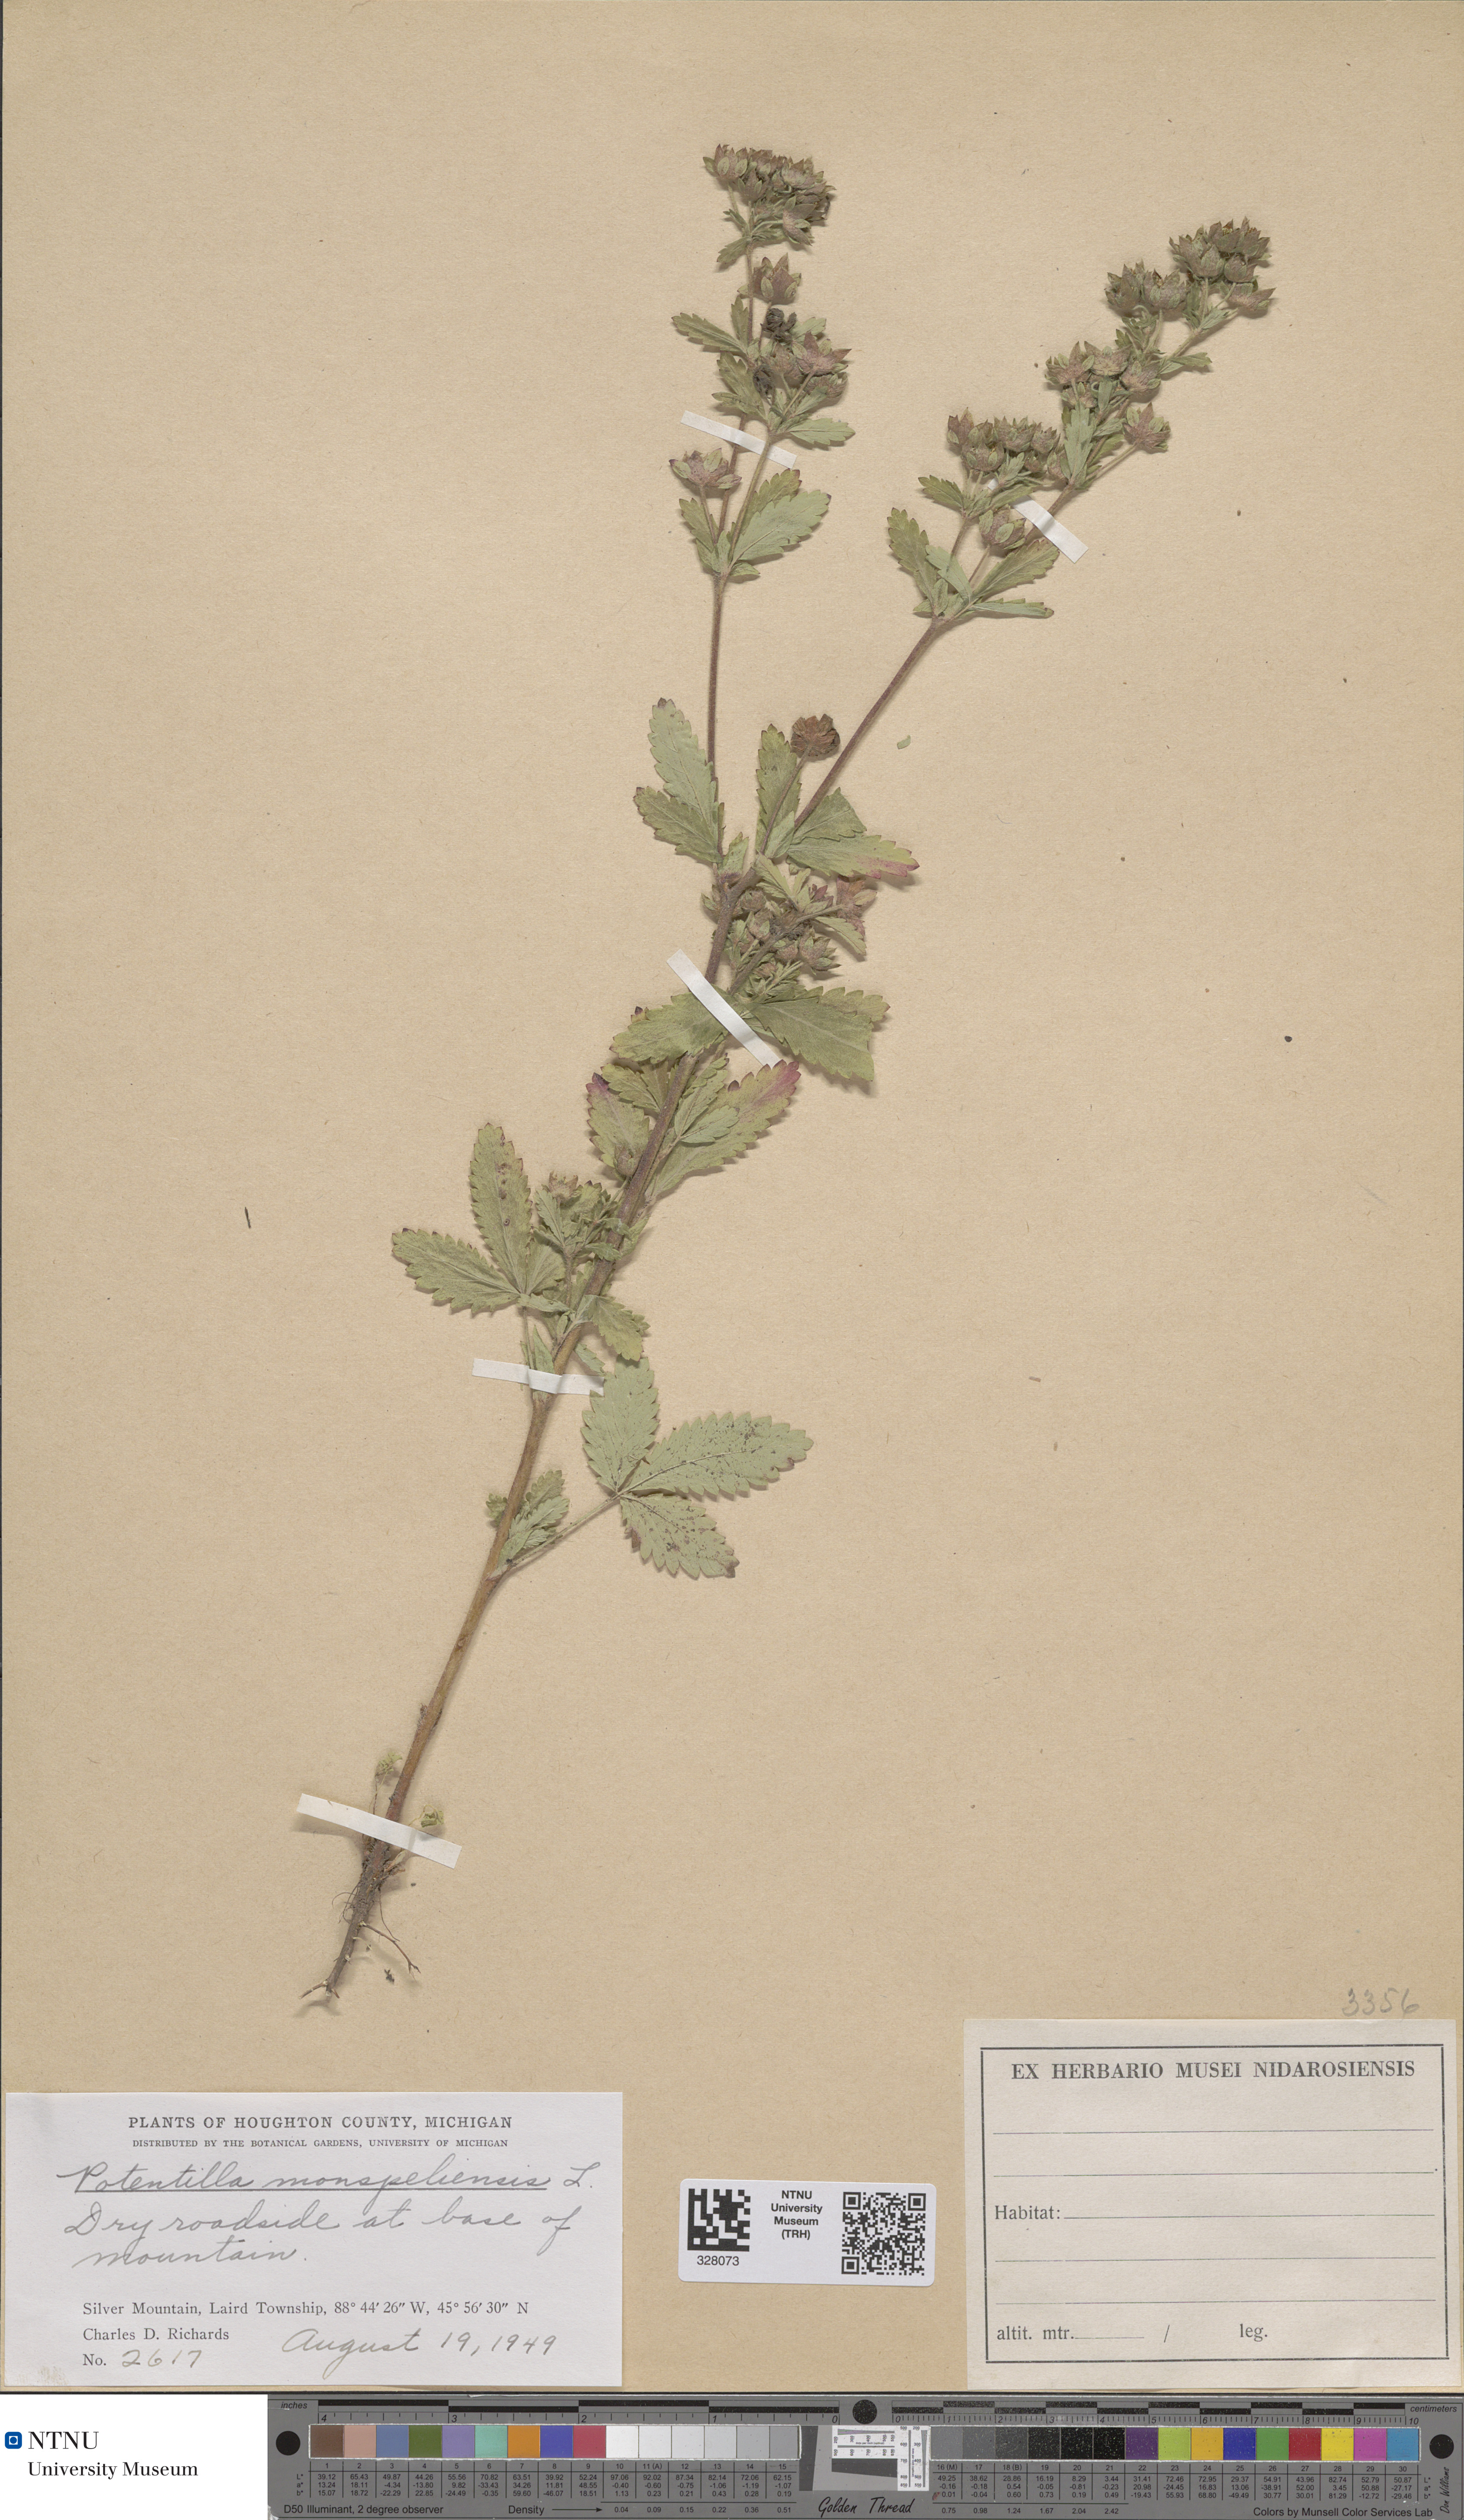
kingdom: Plantae
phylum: Tracheophyta
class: Magnoliopsida
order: Rosales
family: Rosaceae
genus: Potentilla
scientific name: Potentilla norvegica
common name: Ternate-leaved cinquefoil
